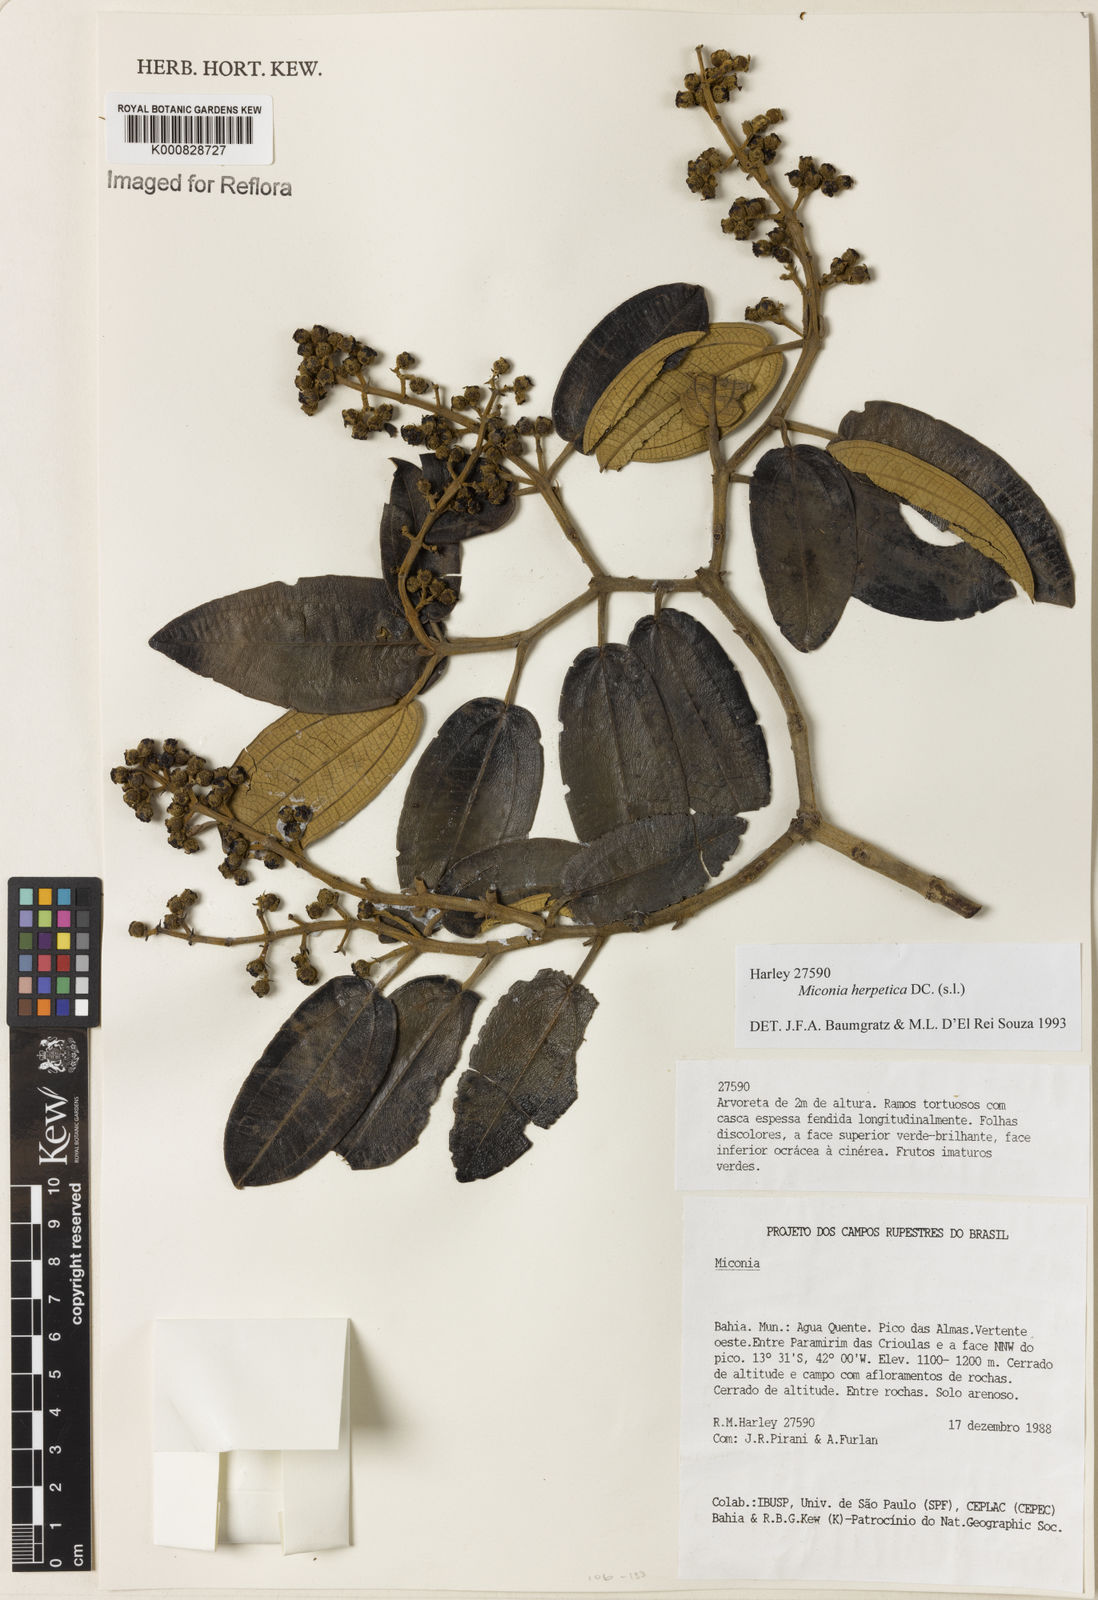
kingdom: Plantae
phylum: Tracheophyta
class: Magnoliopsida
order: Myrtales
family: Melastomataceae
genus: Miconia
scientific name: Miconia herpetica
